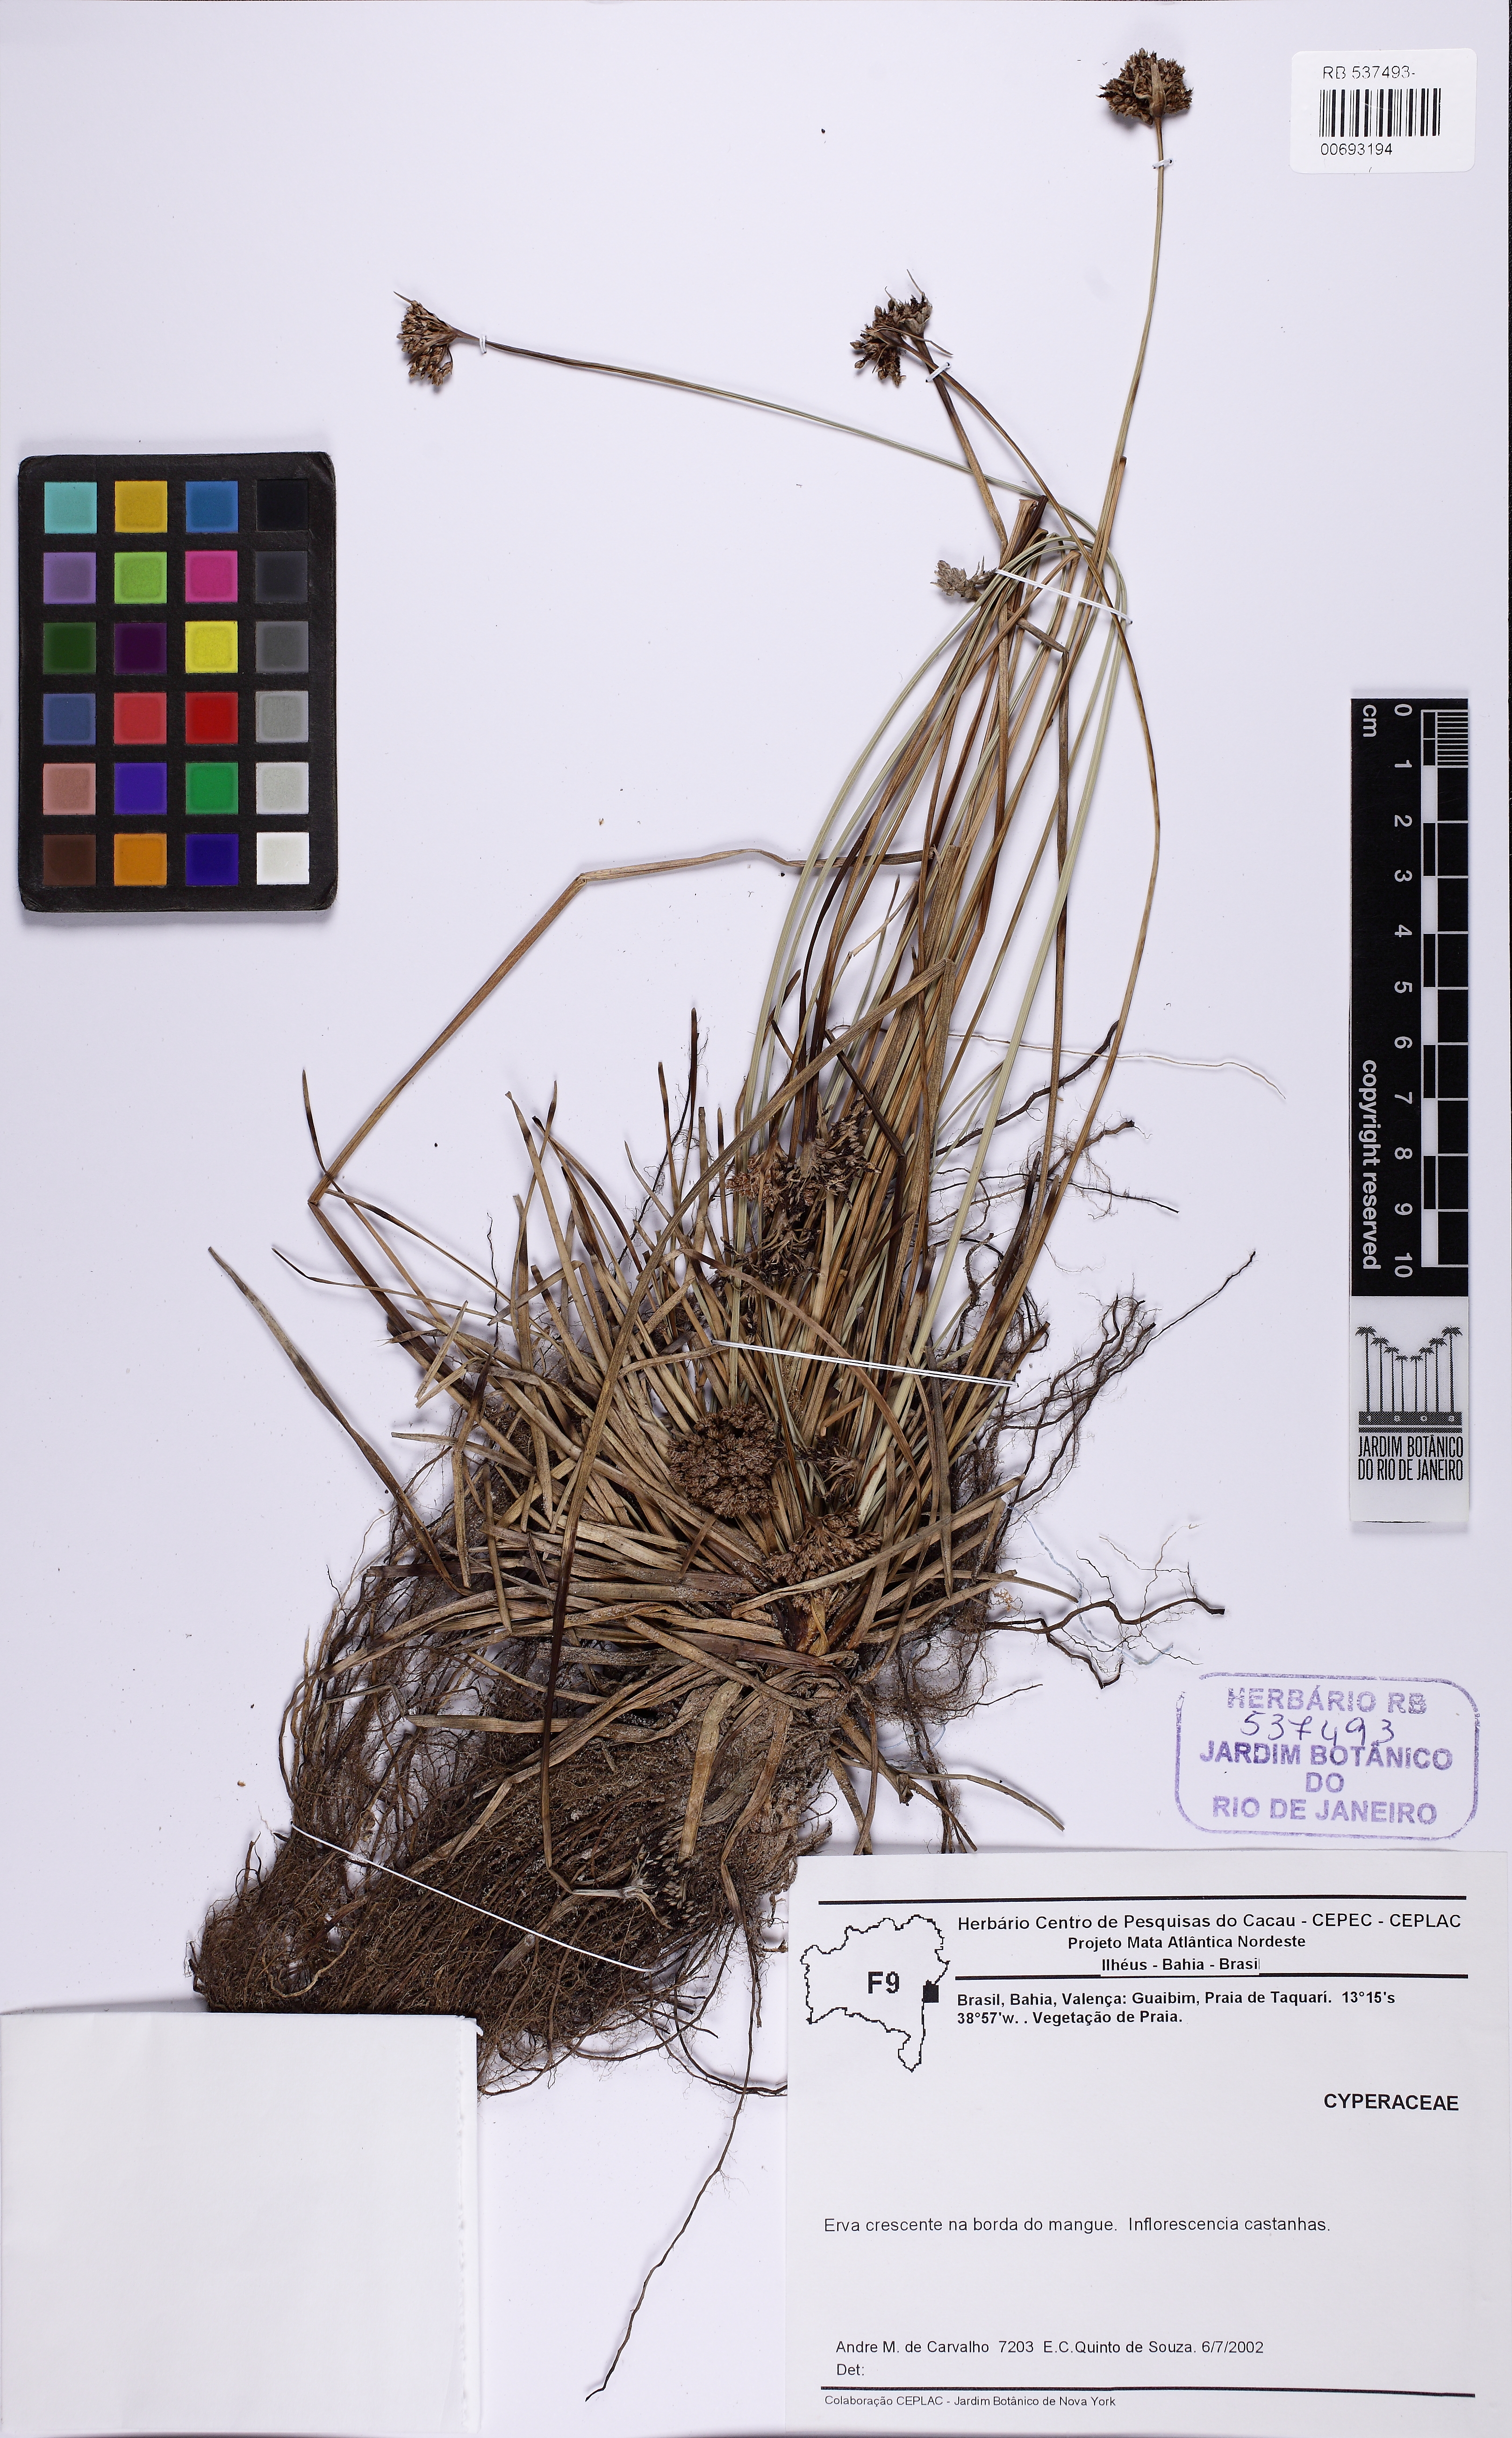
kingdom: Plantae
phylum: Tracheophyta
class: Liliopsida
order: Poales
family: Cyperaceae
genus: Fimbristylis
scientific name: Fimbristylis cymosa
